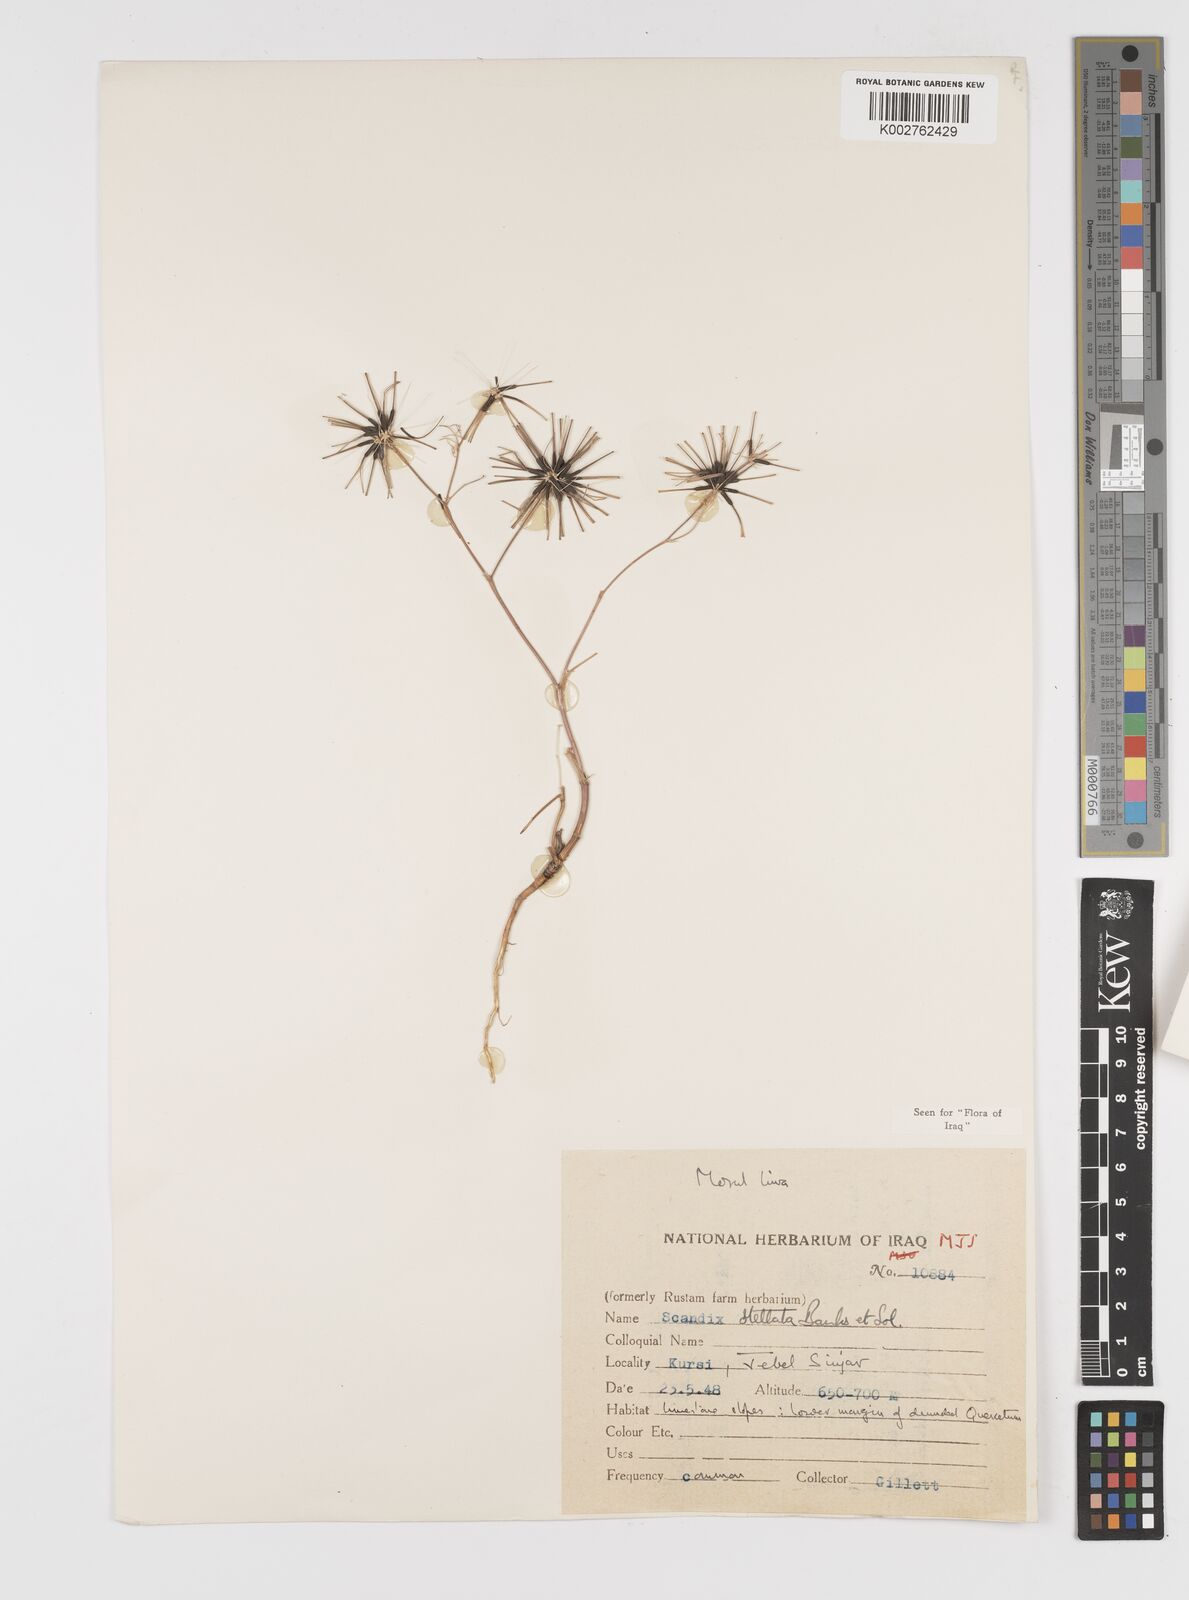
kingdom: Plantae
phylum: Tracheophyta
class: Magnoliopsida
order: Apiales
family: Apiaceae
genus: Scandix
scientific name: Scandix stellata
